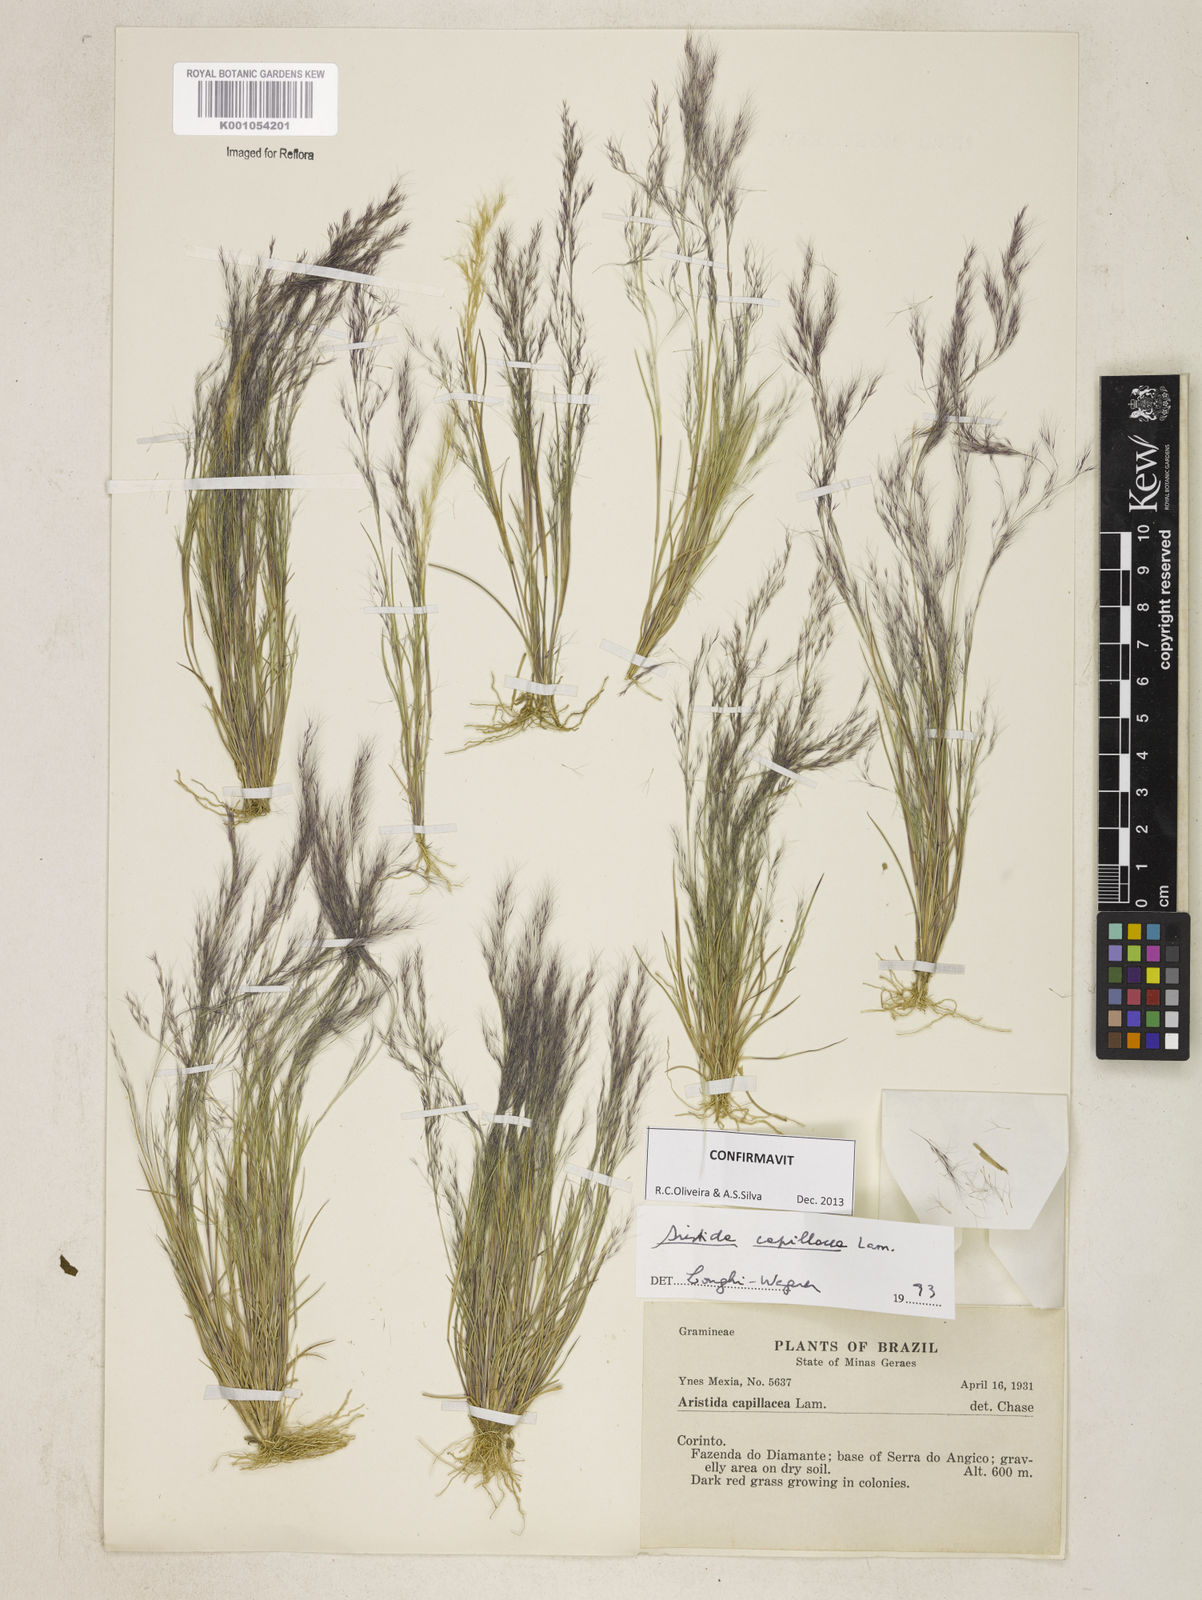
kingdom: Plantae
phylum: Tracheophyta
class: Liliopsida
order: Poales
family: Poaceae
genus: Aristida
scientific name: Aristida capillacea
